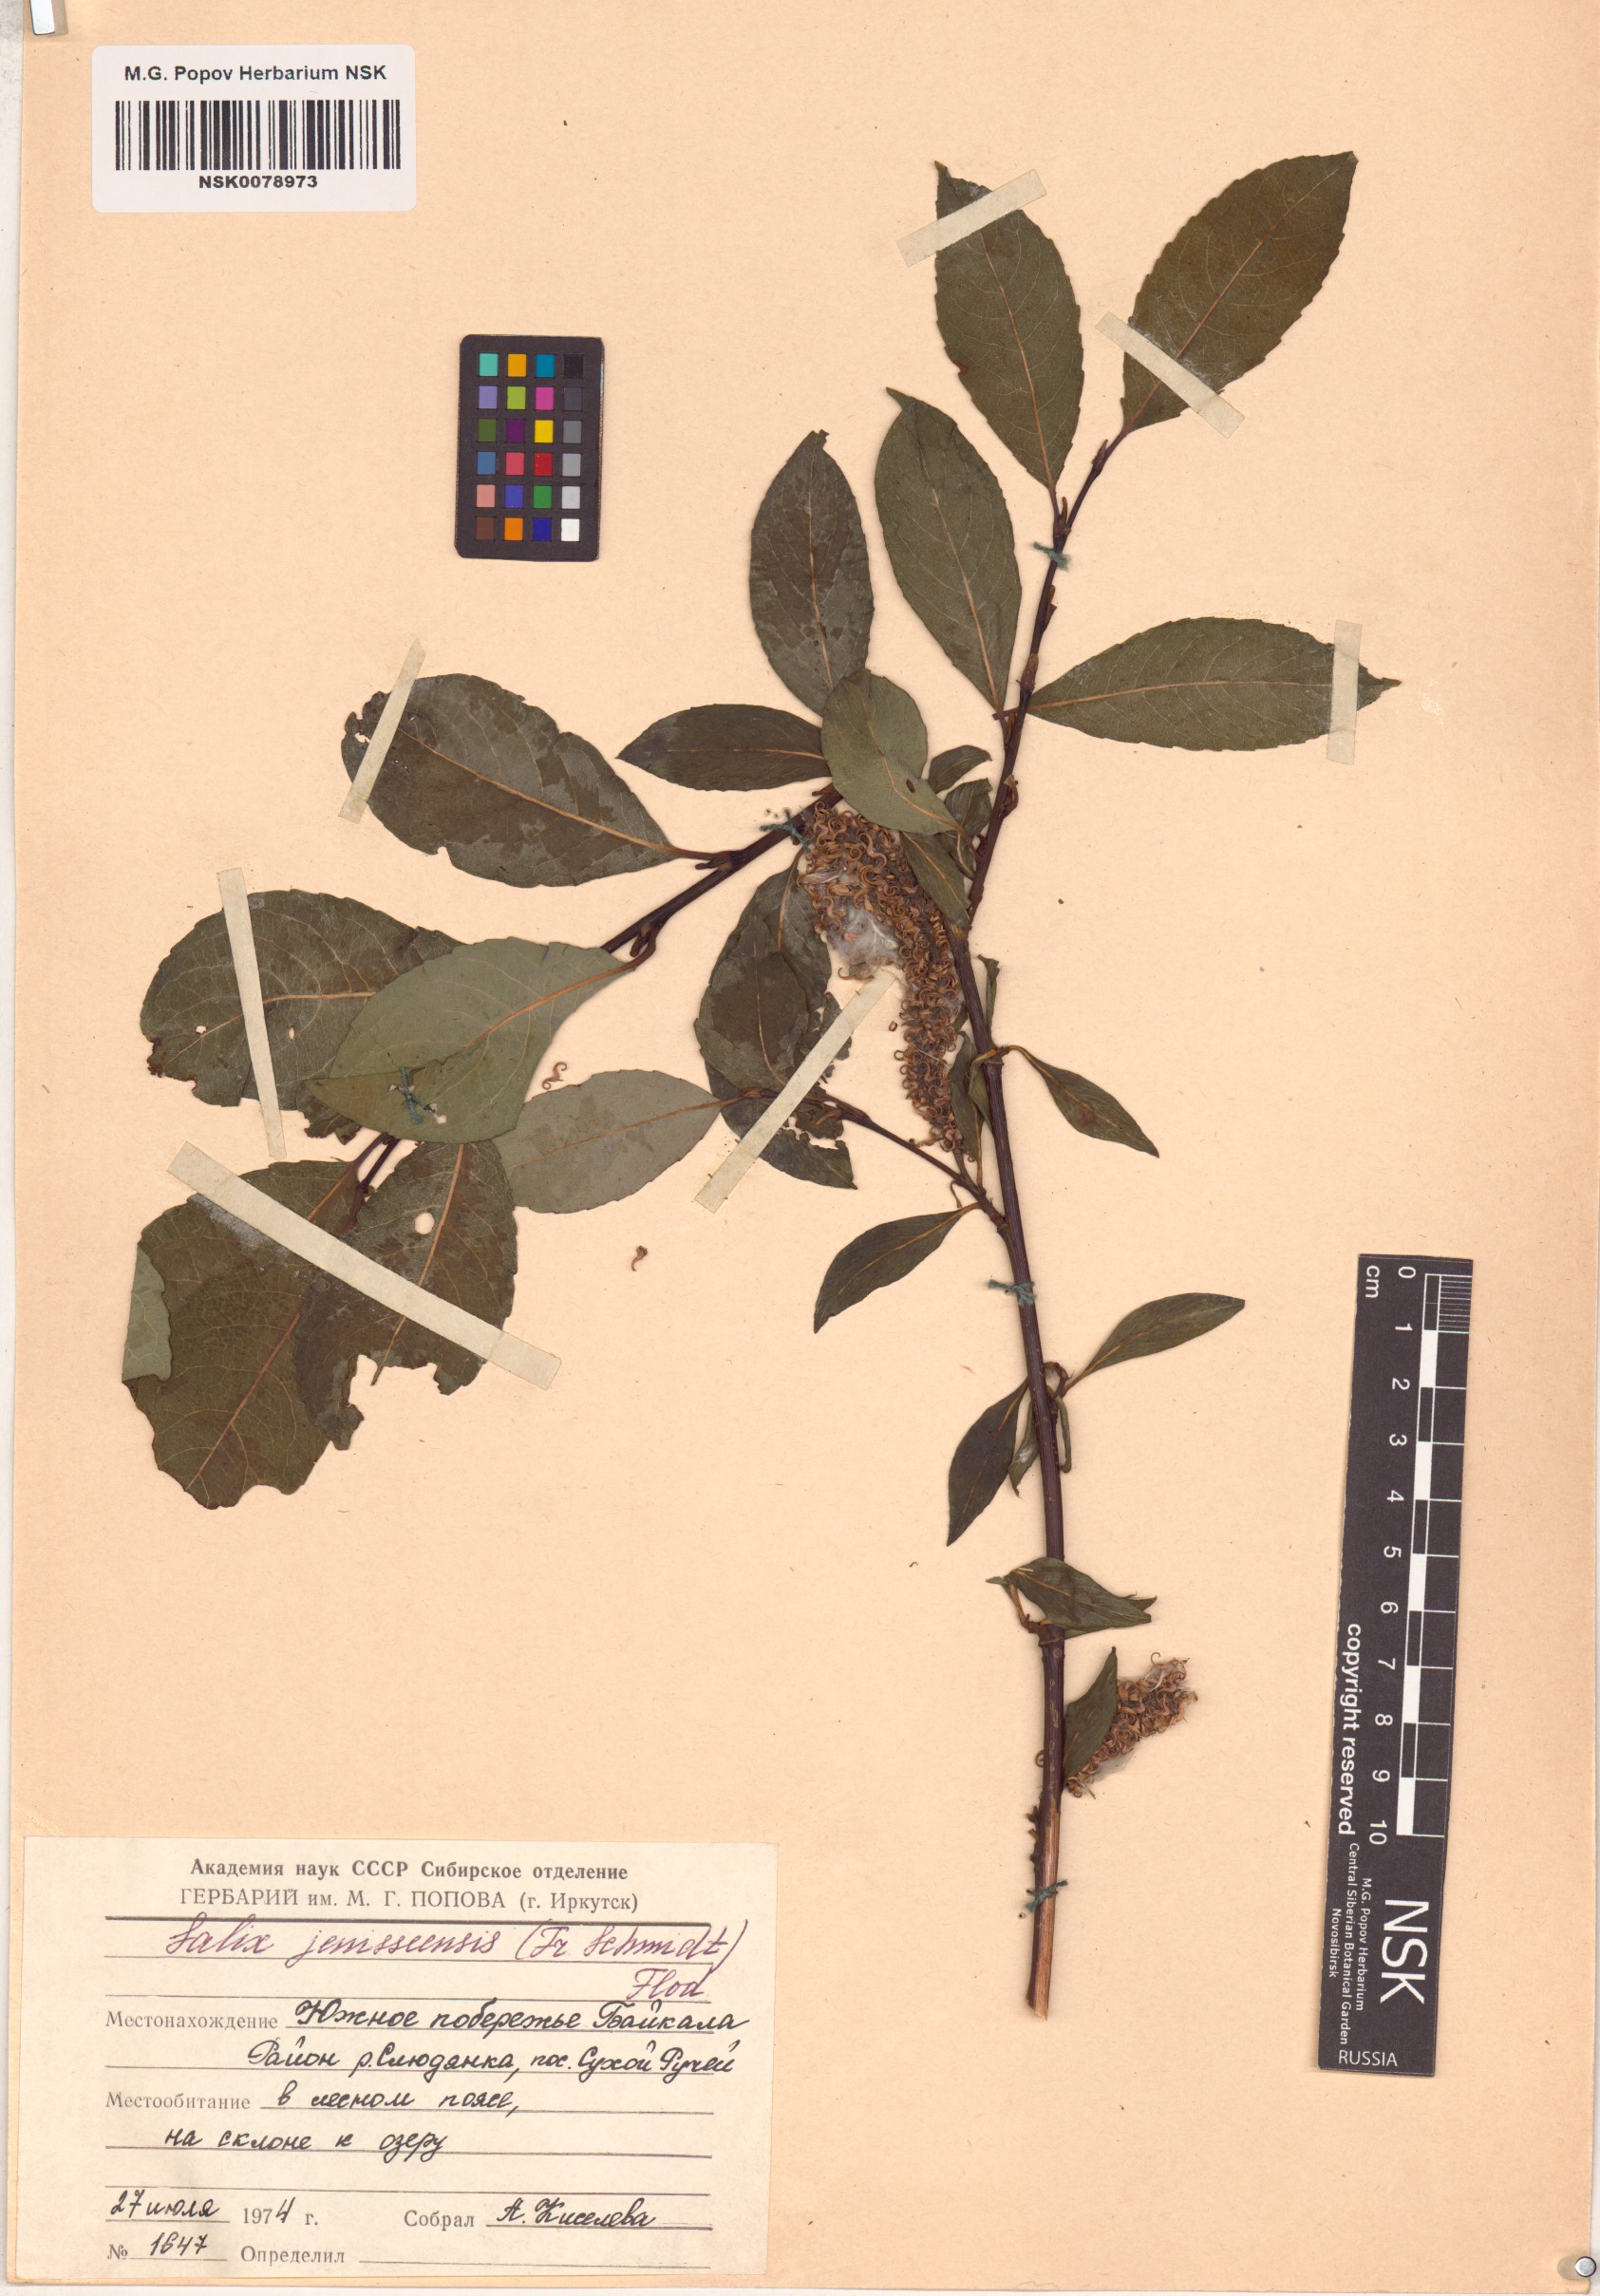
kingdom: Plantae
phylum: Tracheophyta
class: Magnoliopsida
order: Malpighiales
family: Salicaceae
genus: Salix
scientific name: Salix jenisseensis
